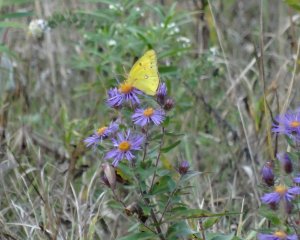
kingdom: Animalia
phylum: Arthropoda
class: Insecta
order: Lepidoptera
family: Pieridae
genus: Colias
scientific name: Colias eurytheme
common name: Orange Sulphur
